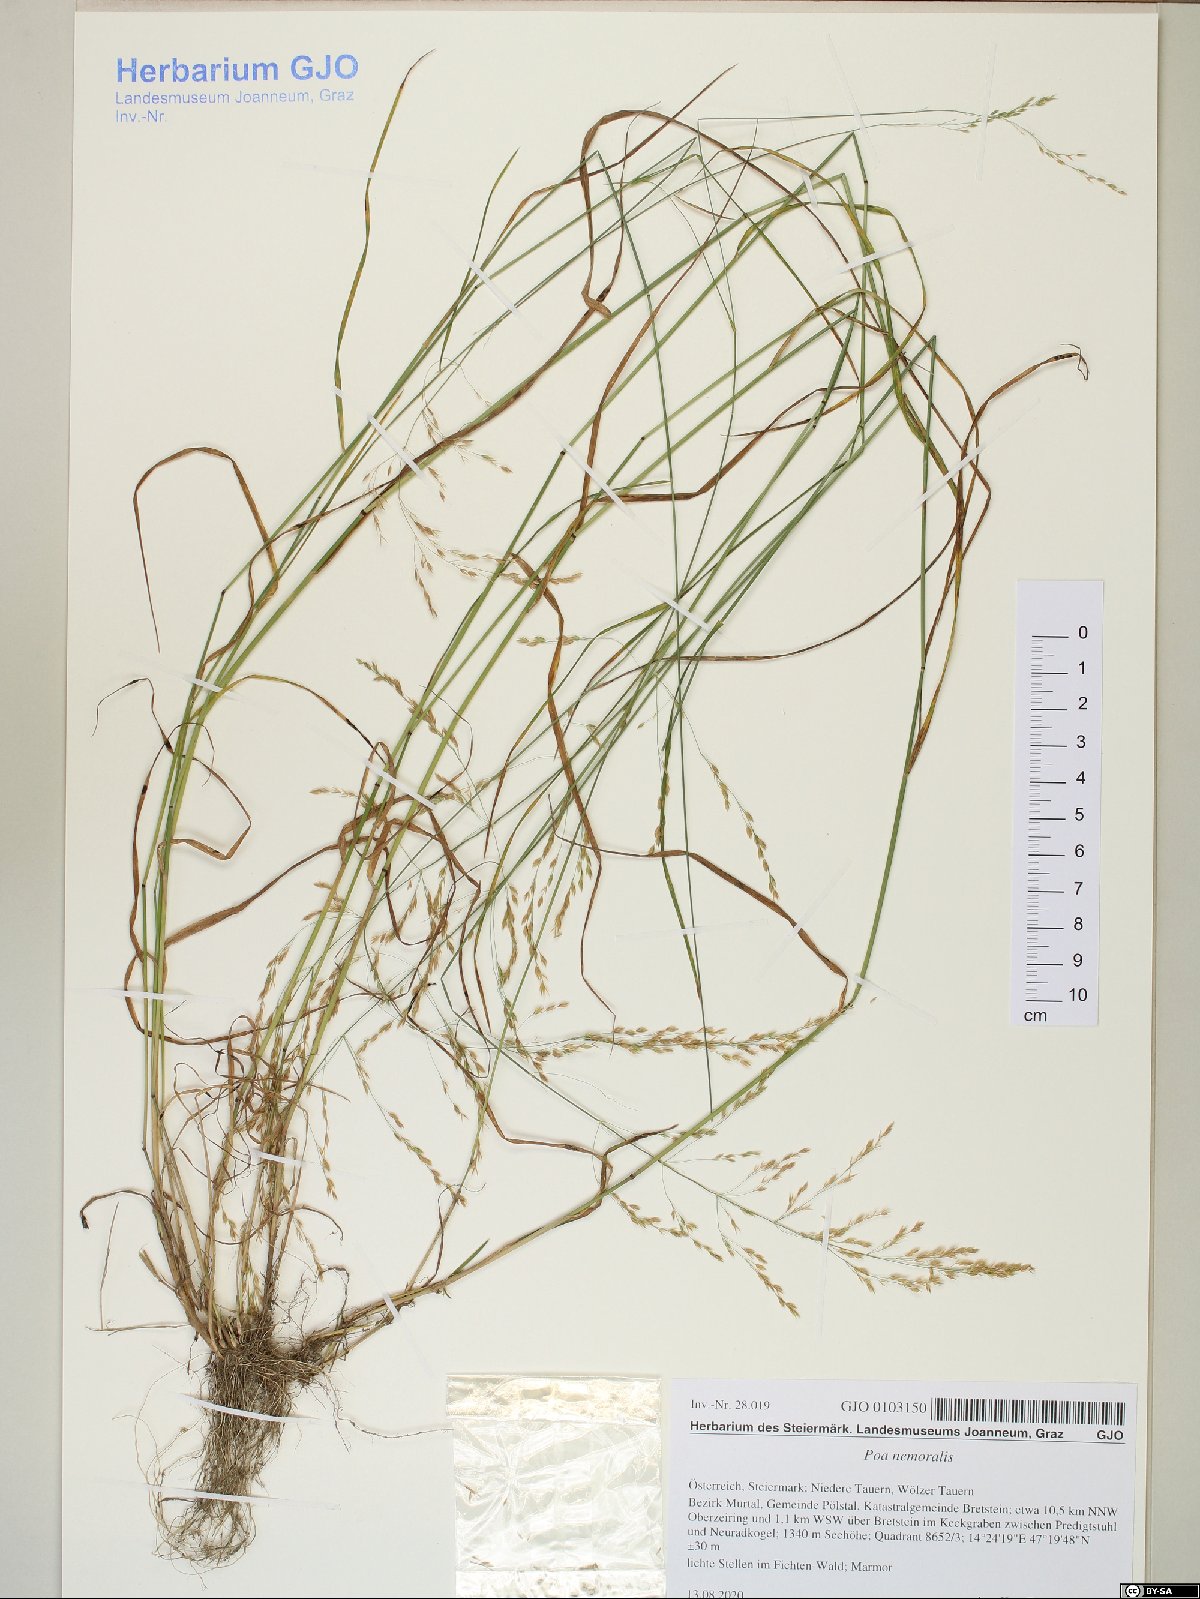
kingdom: Plantae
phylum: Tracheophyta
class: Liliopsida
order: Poales
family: Poaceae
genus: Poa
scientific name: Poa nemoralis
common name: Wood bluegrass
